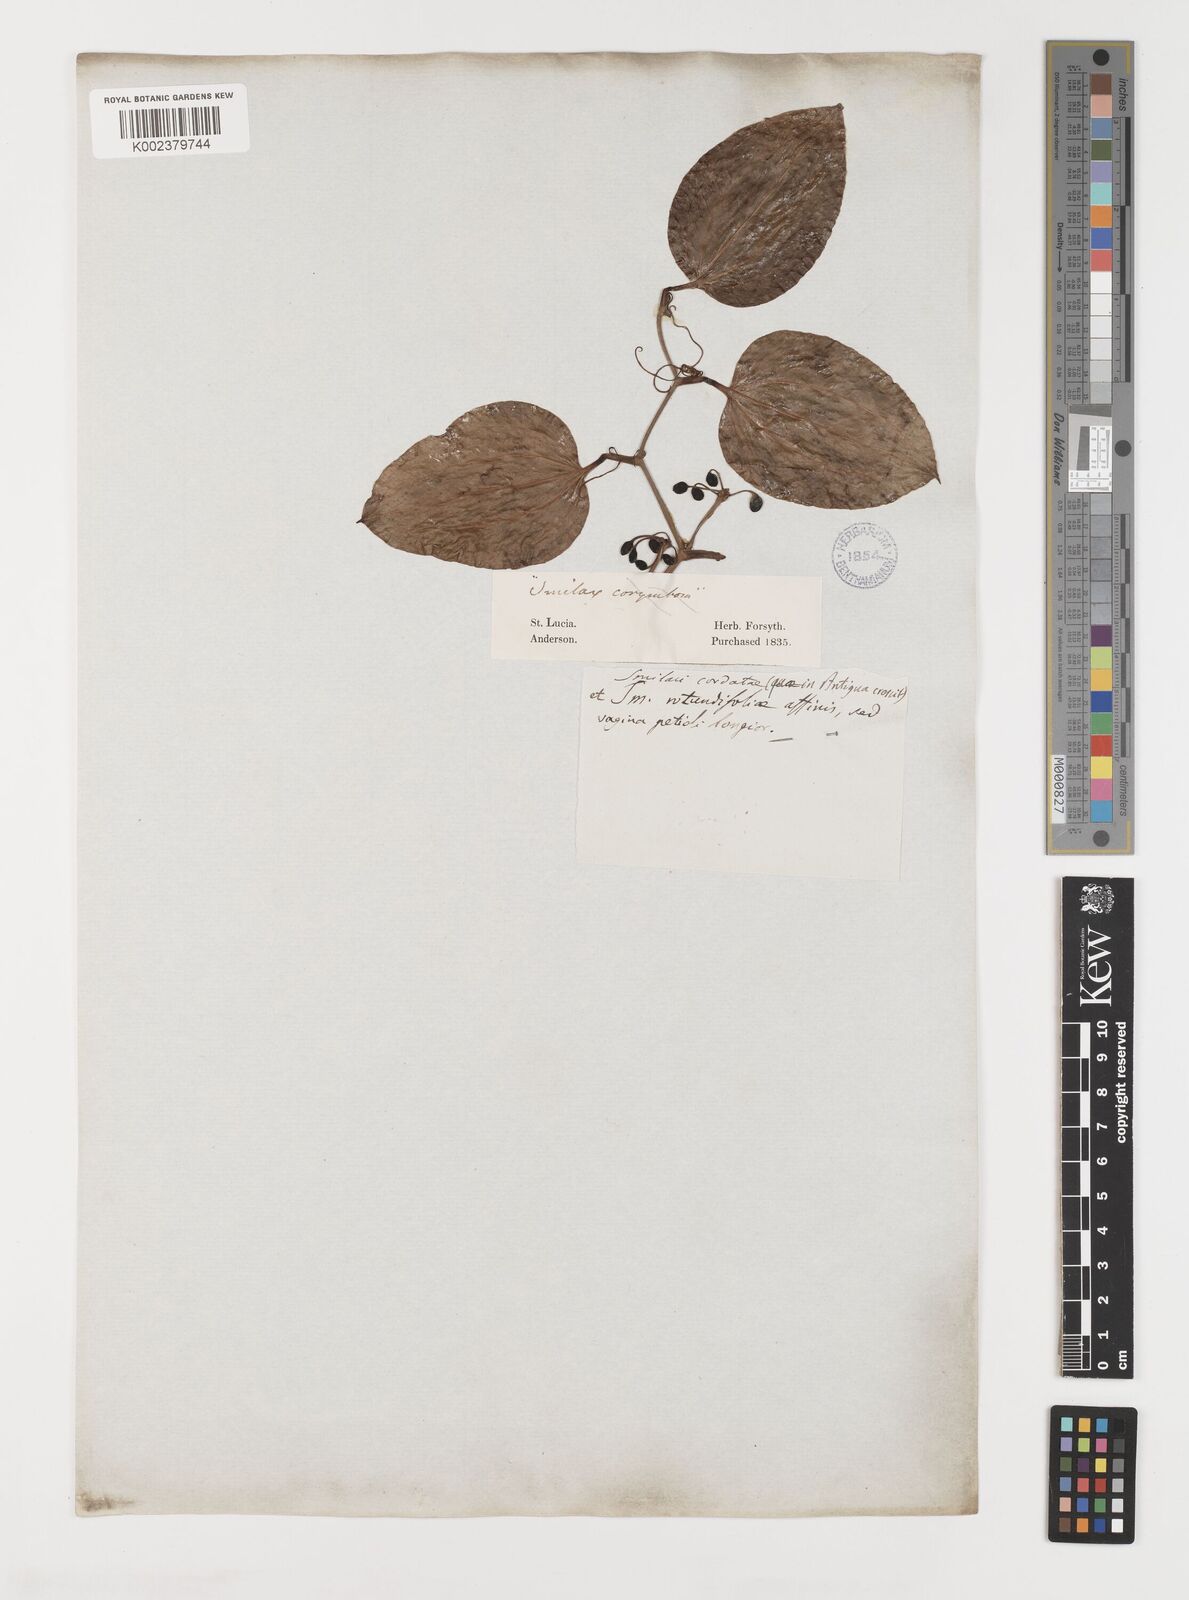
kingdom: Plantae
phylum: Tracheophyta
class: Liliopsida
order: Liliales
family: Smilacaceae
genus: Smilax
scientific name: Smilax guianensis
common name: Basket hoop
